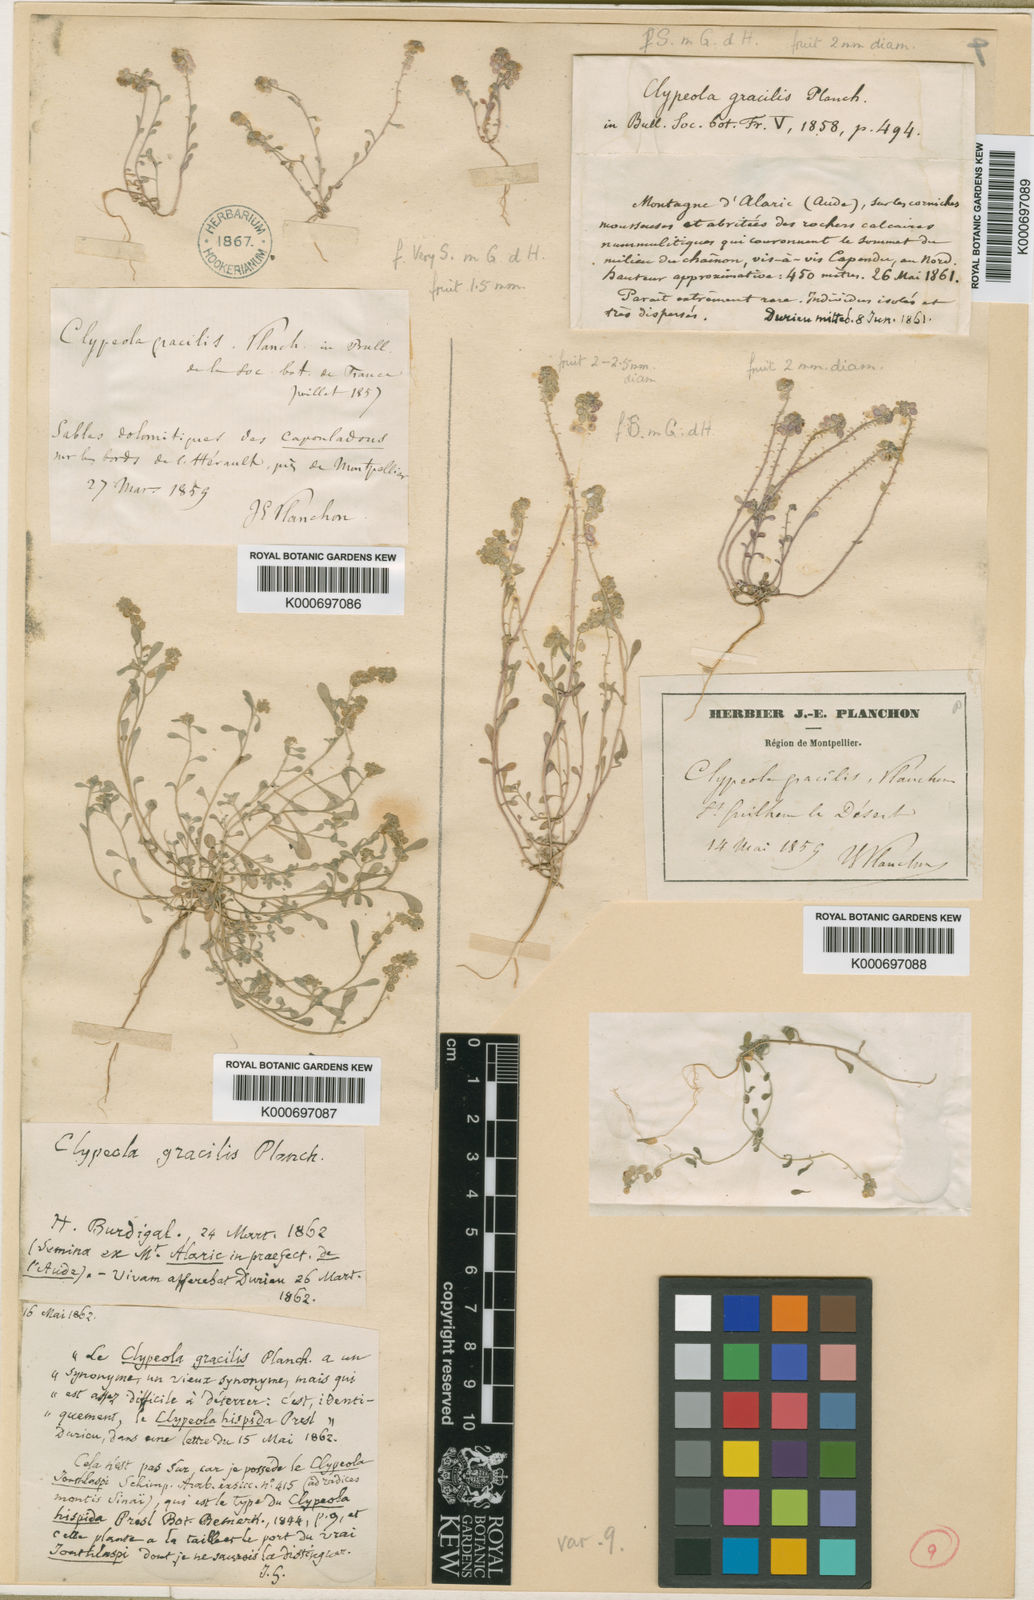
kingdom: Plantae
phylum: Tracheophyta
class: Magnoliopsida
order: Brassicales
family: Brassicaceae
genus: Clypeola
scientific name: Clypeola
